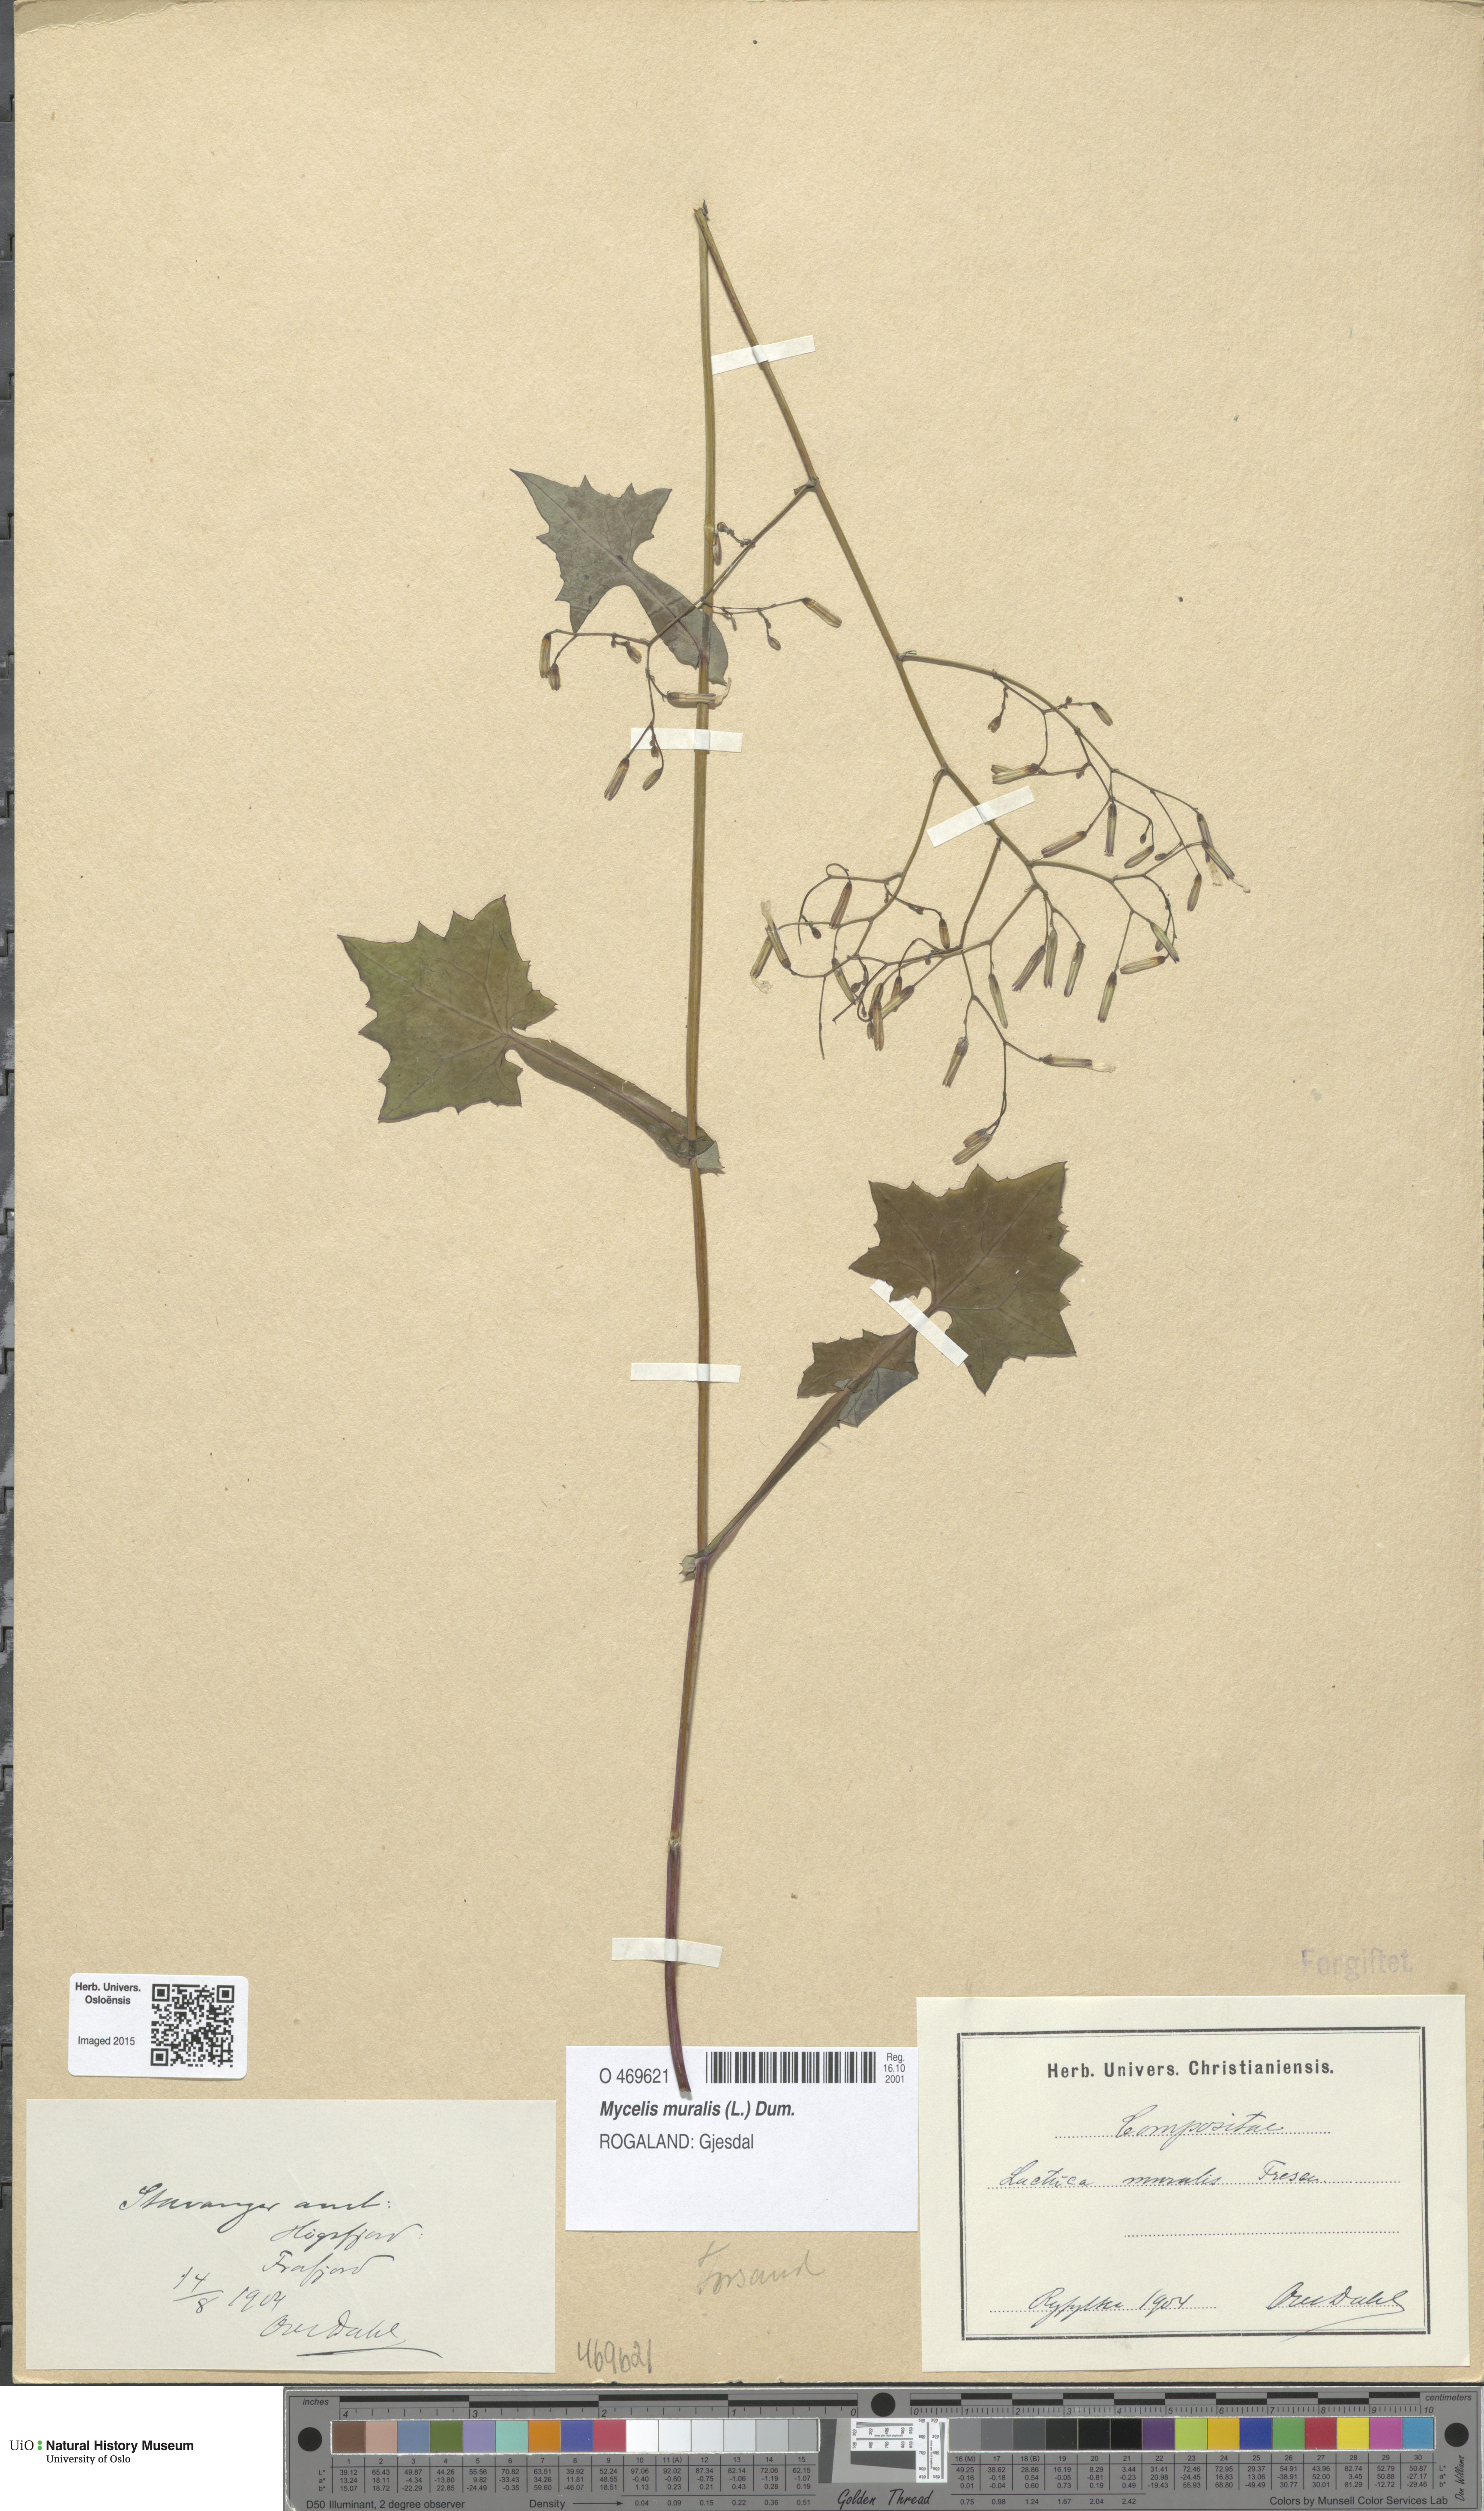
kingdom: Plantae
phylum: Tracheophyta
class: Magnoliopsida
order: Asterales
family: Asteraceae
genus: Mycelis
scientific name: Mycelis muralis
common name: Wall lettuce
